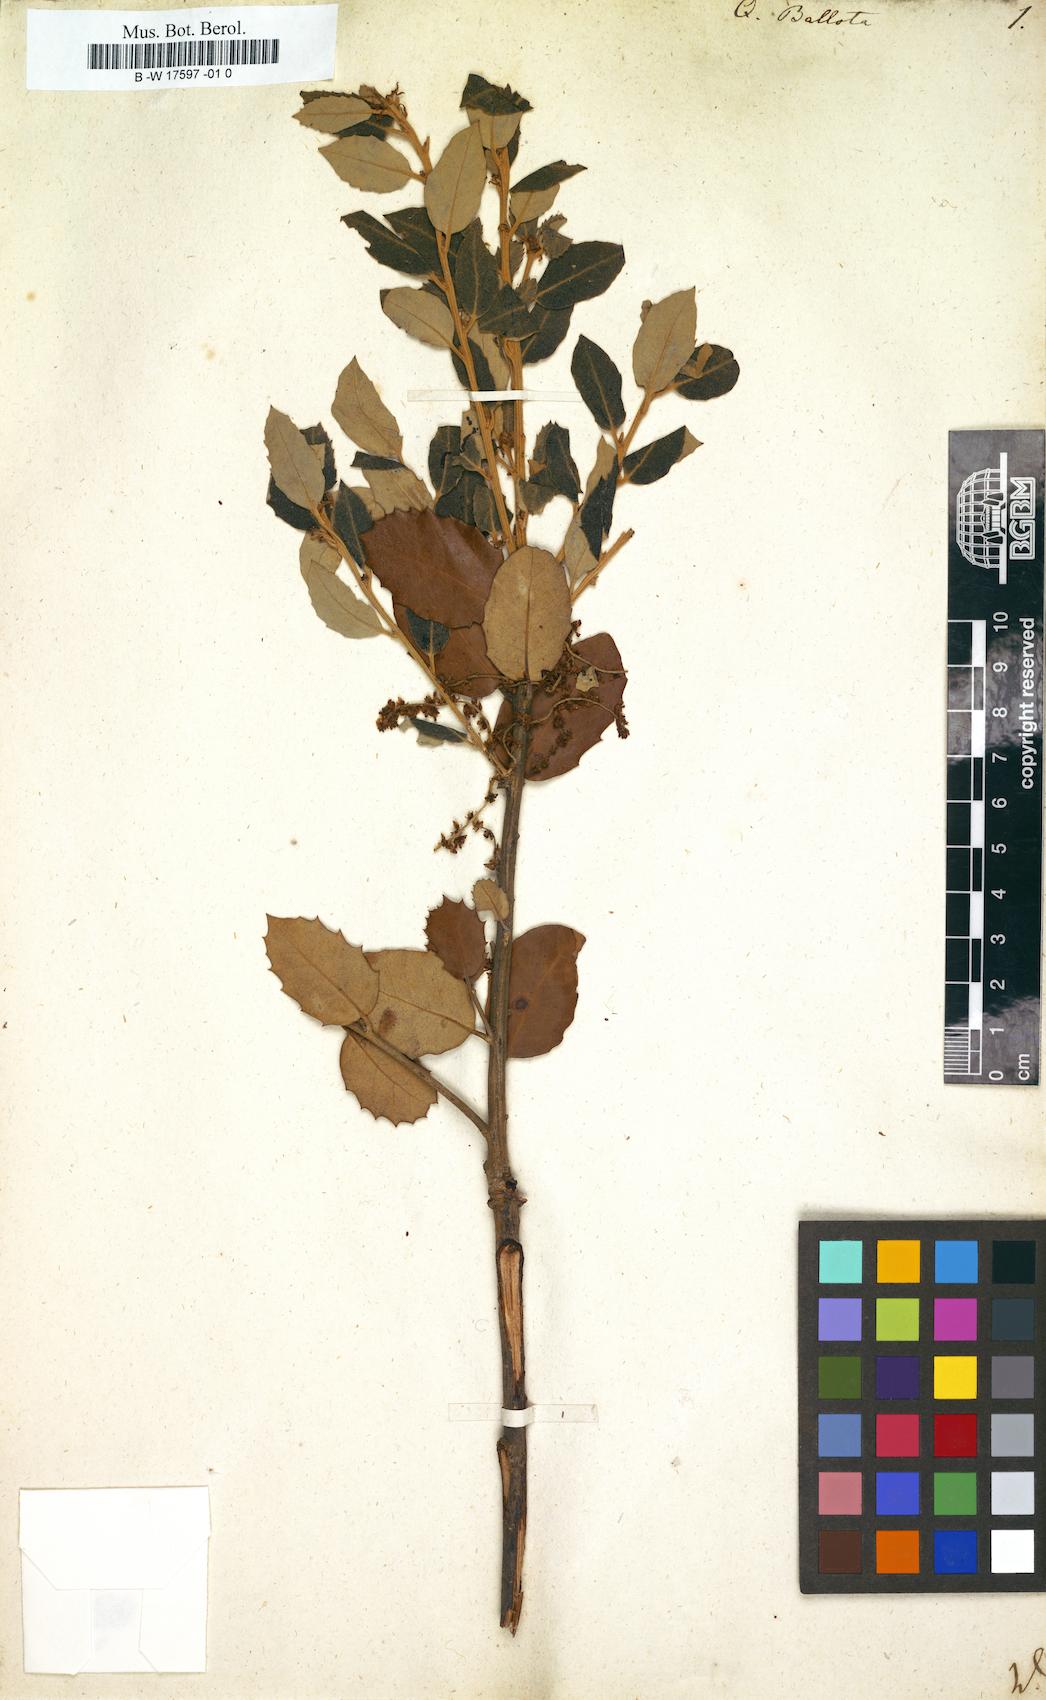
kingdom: Plantae
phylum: Tracheophyta
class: Magnoliopsida
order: Fagales
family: Fagaceae
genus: Quercus
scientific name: Quercus rotundifolia
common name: Holm oak
